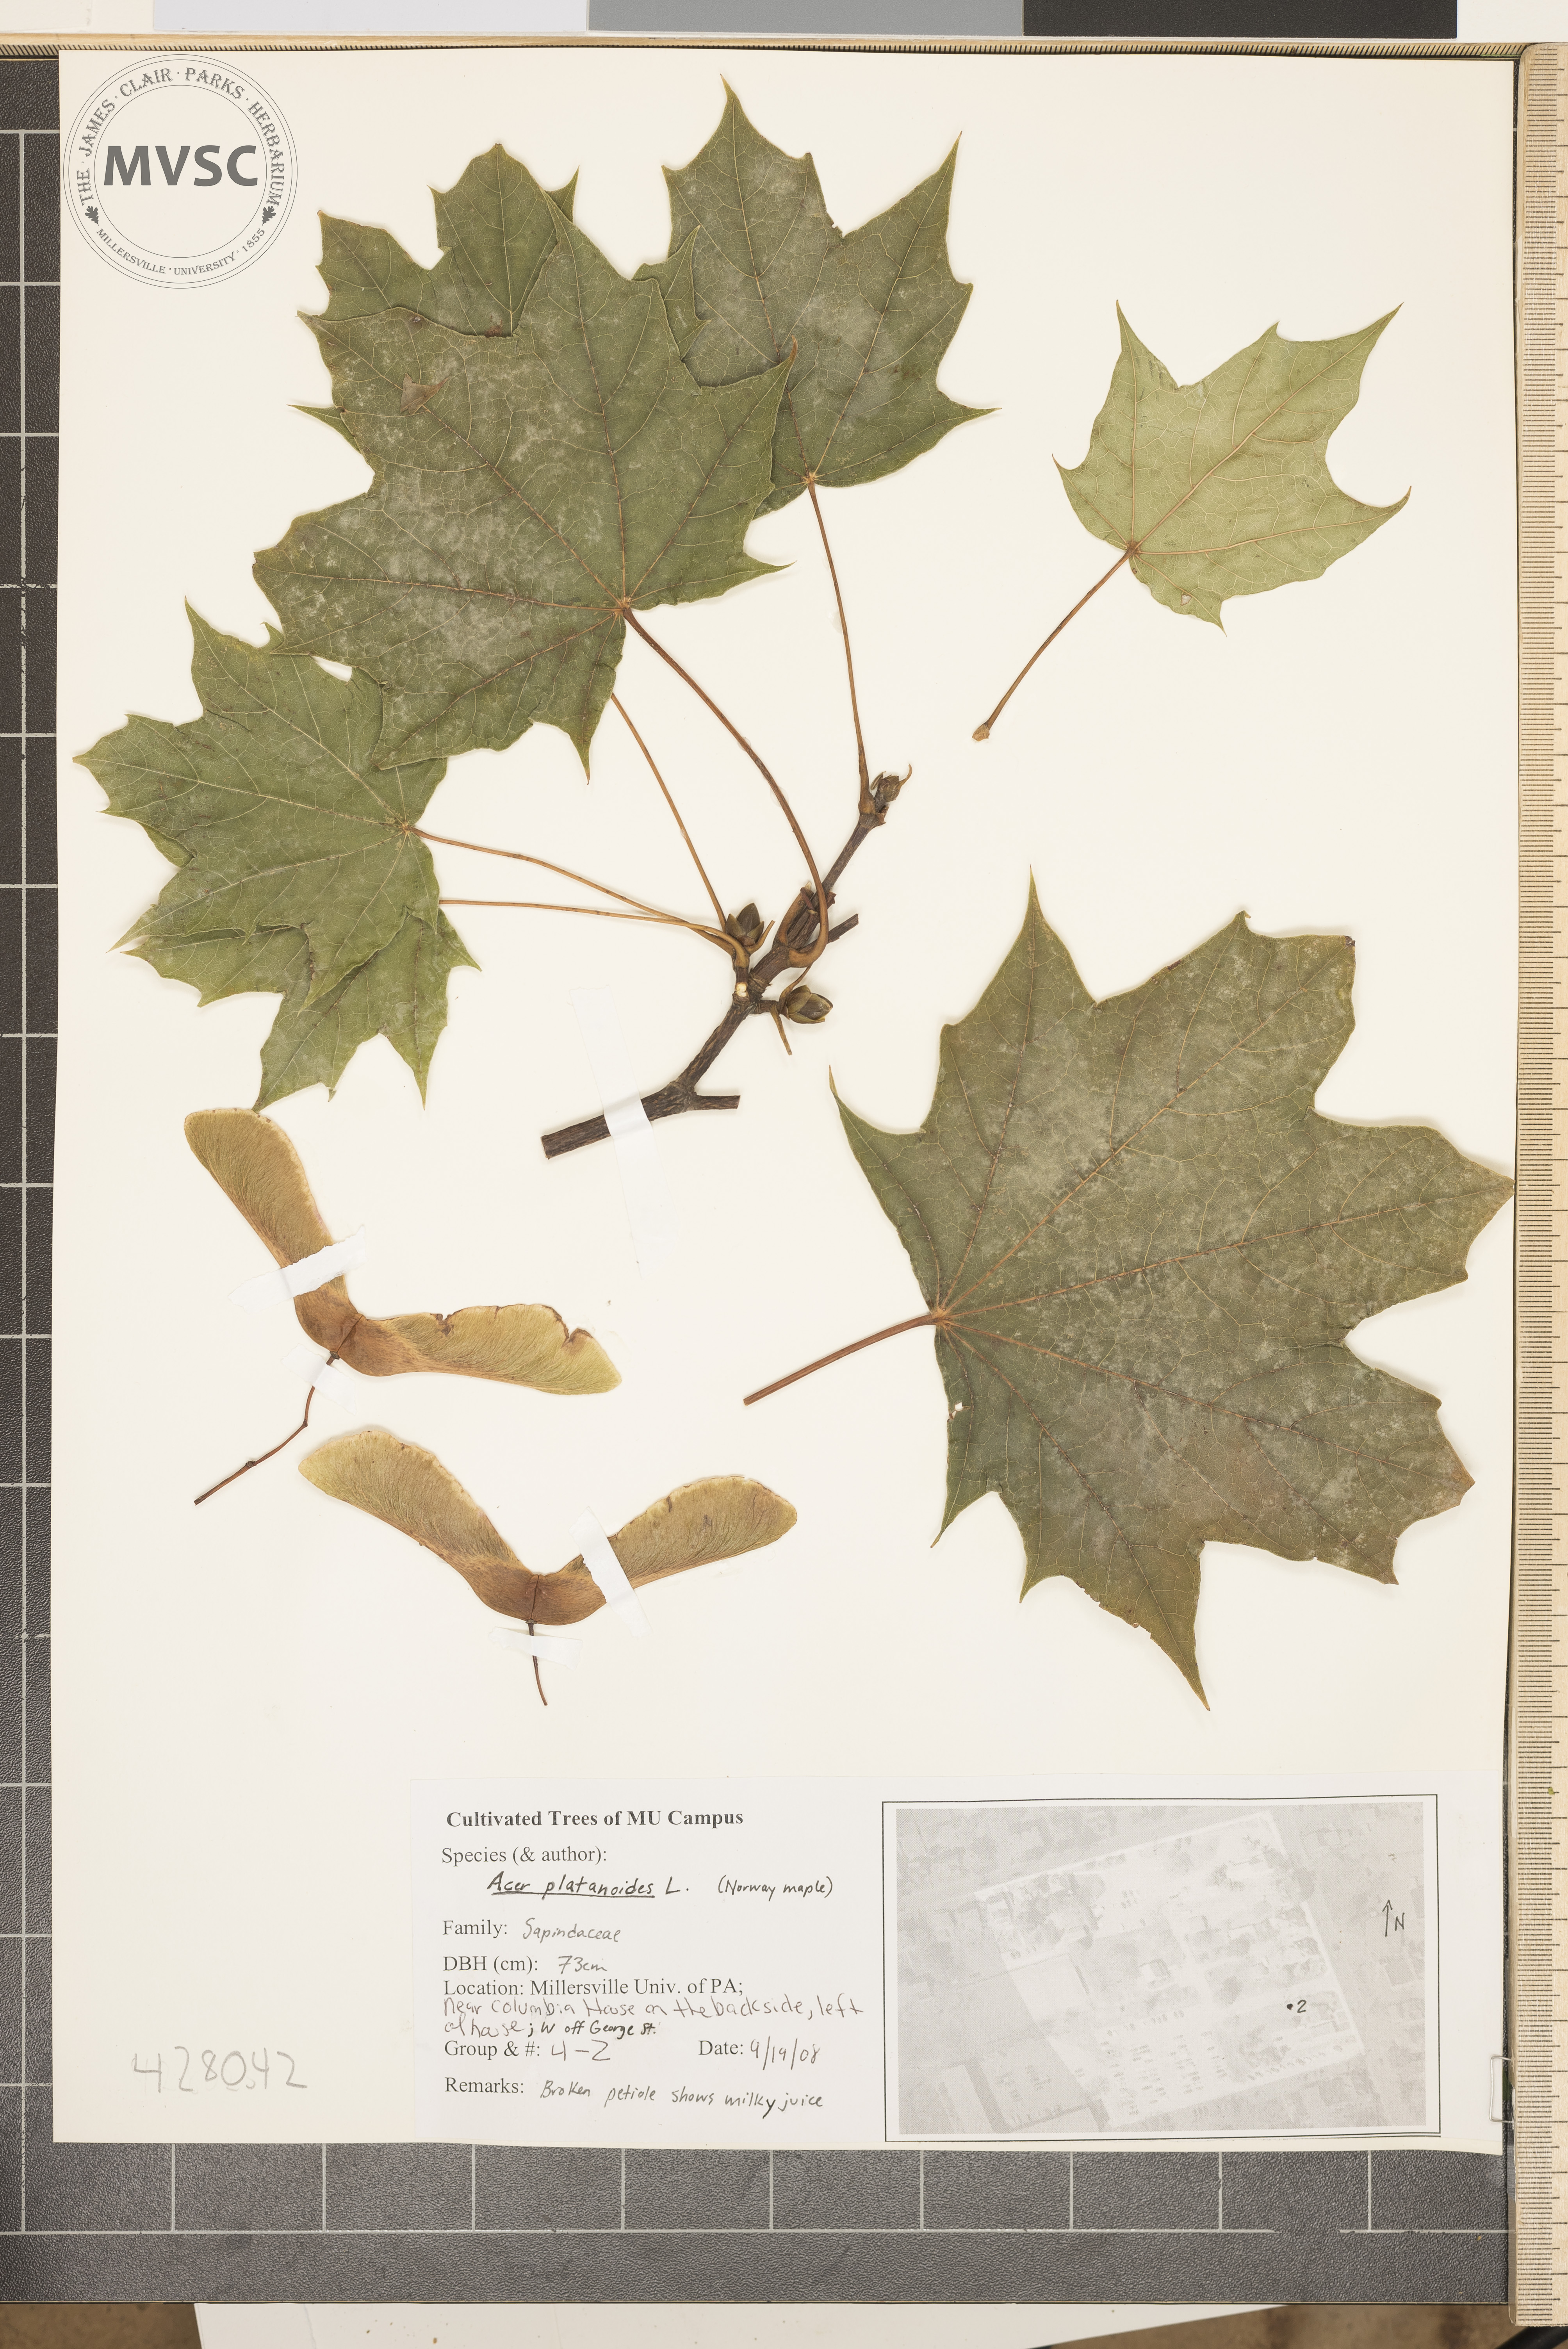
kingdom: Plantae
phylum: Tracheophyta
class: Magnoliopsida
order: Sapindales
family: Sapindaceae
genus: Acer
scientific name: Acer platanoides
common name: Norway Maple
